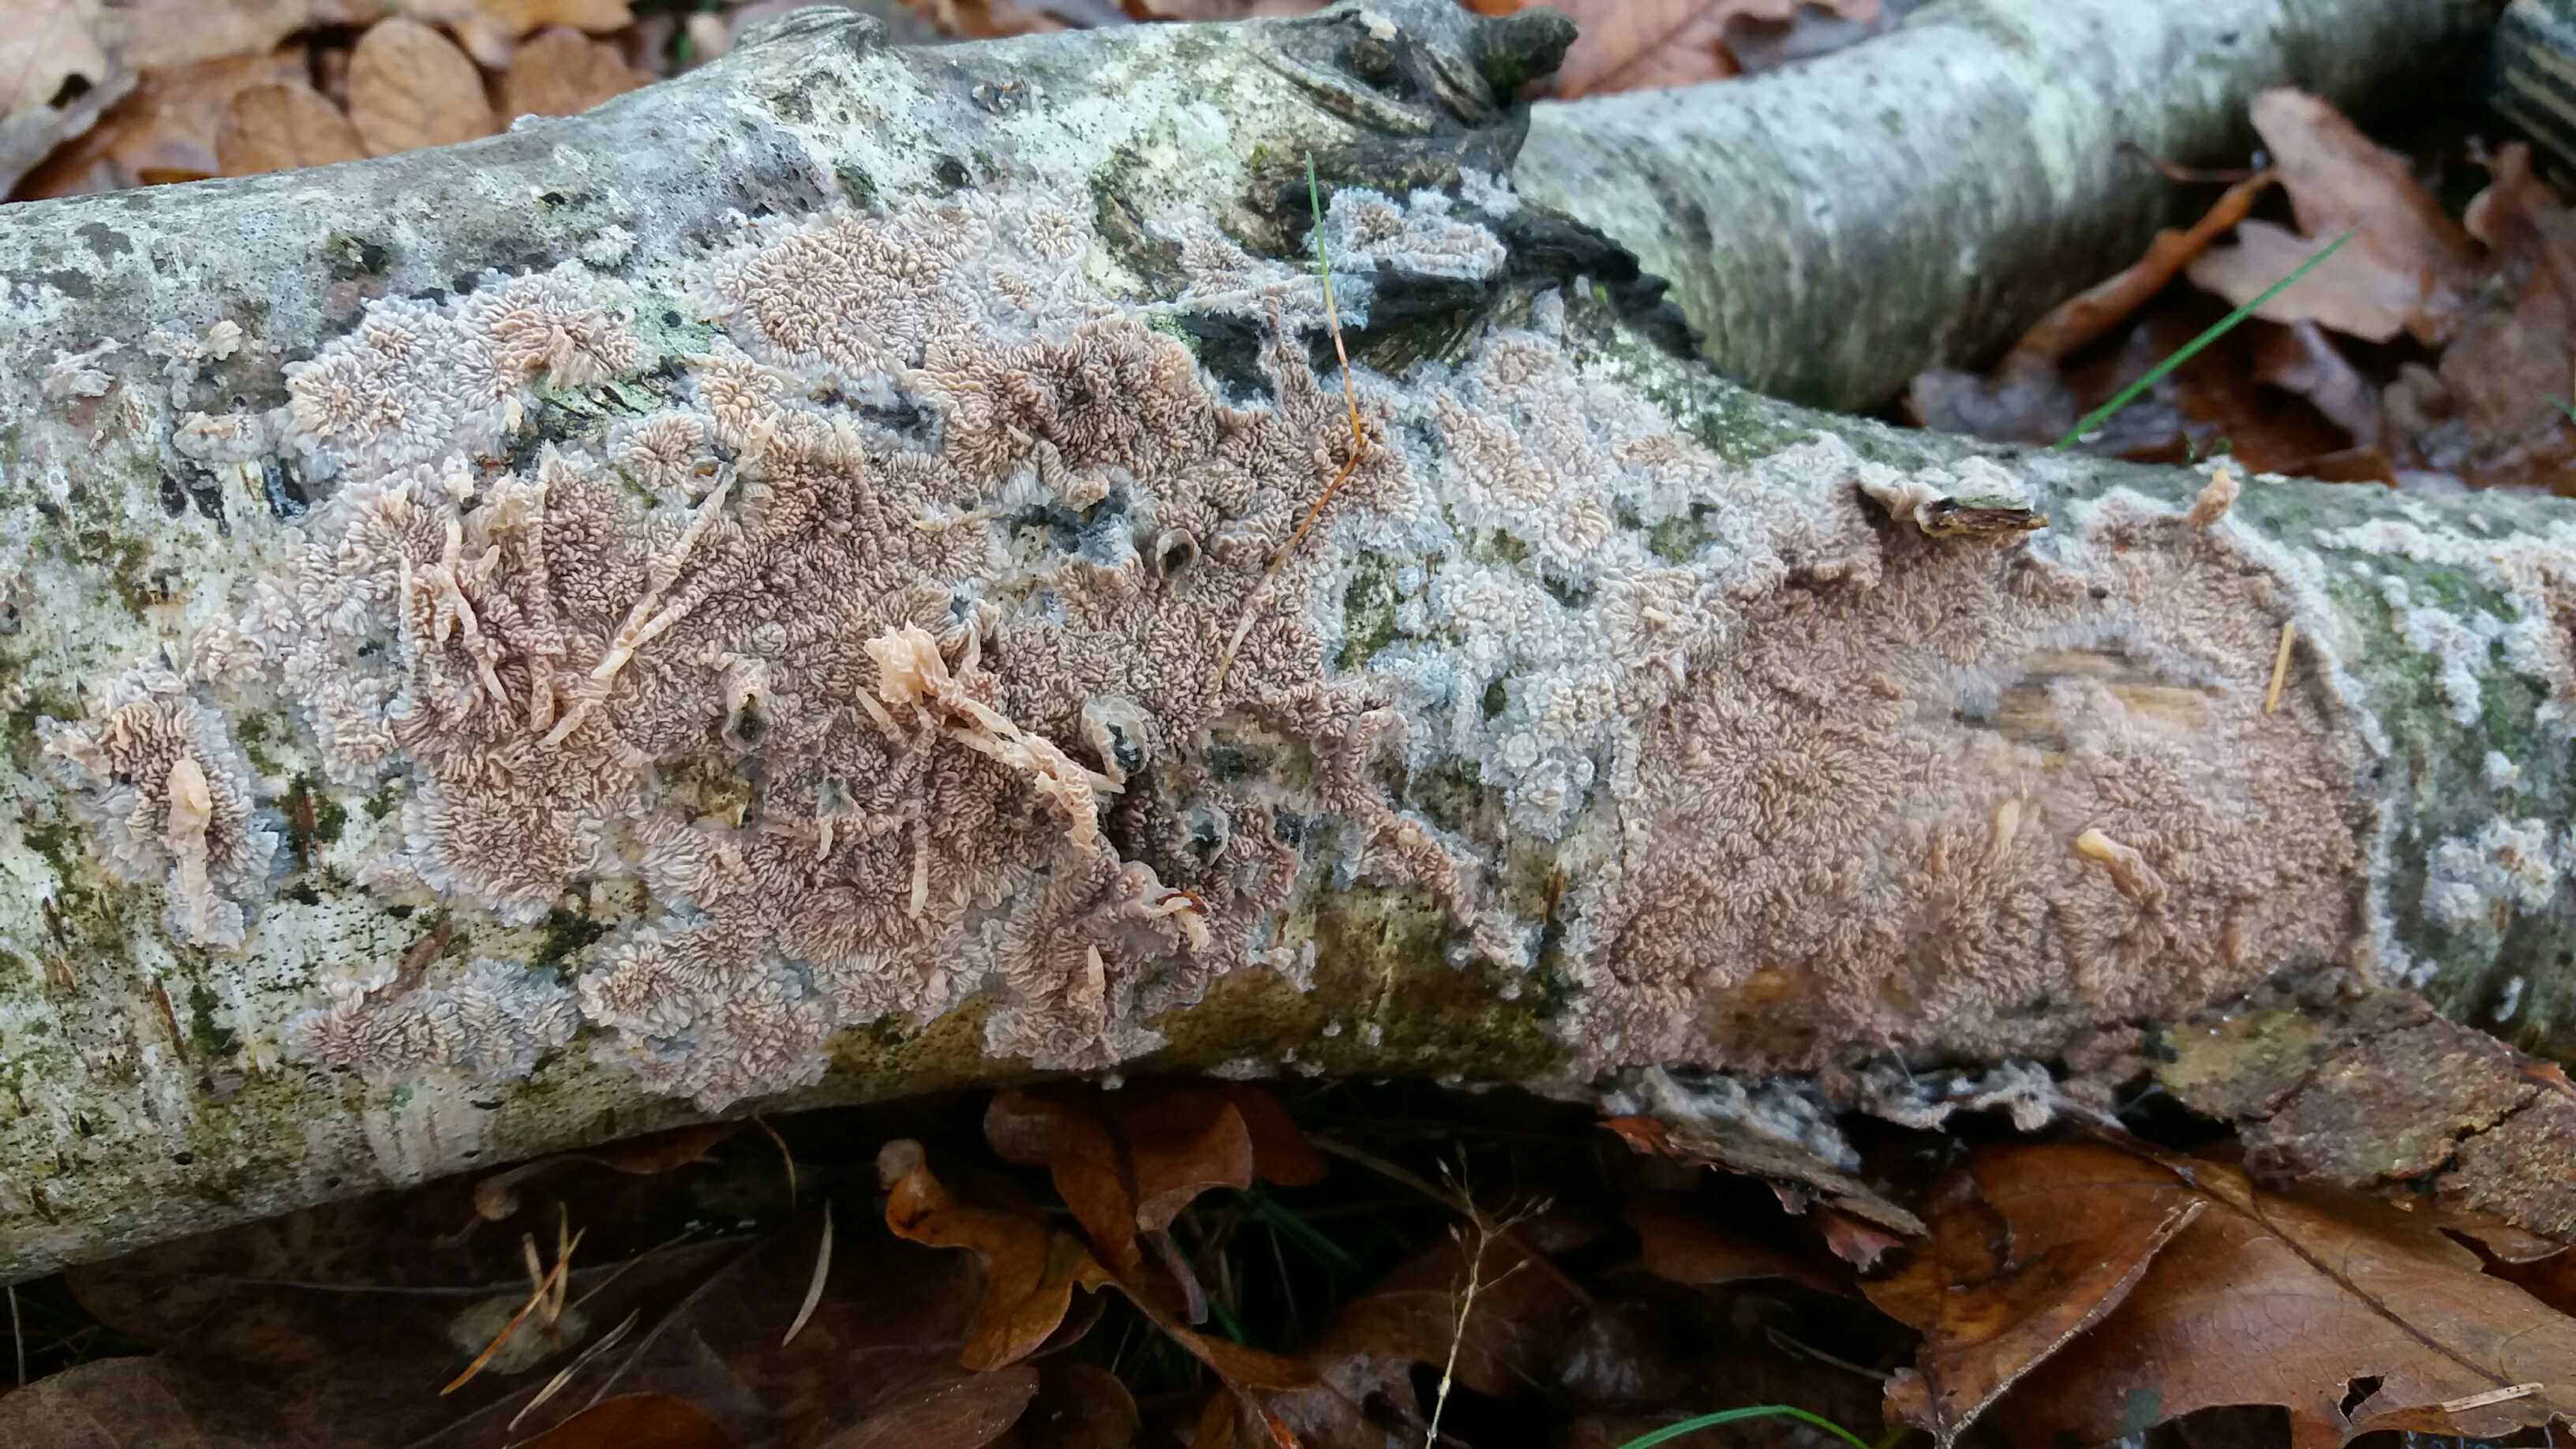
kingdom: Fungi
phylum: Basidiomycota
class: Agaricomycetes
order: Polyporales
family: Meruliaceae
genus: Phlebia
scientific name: Phlebia radiata
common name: stråle-åresvamp
